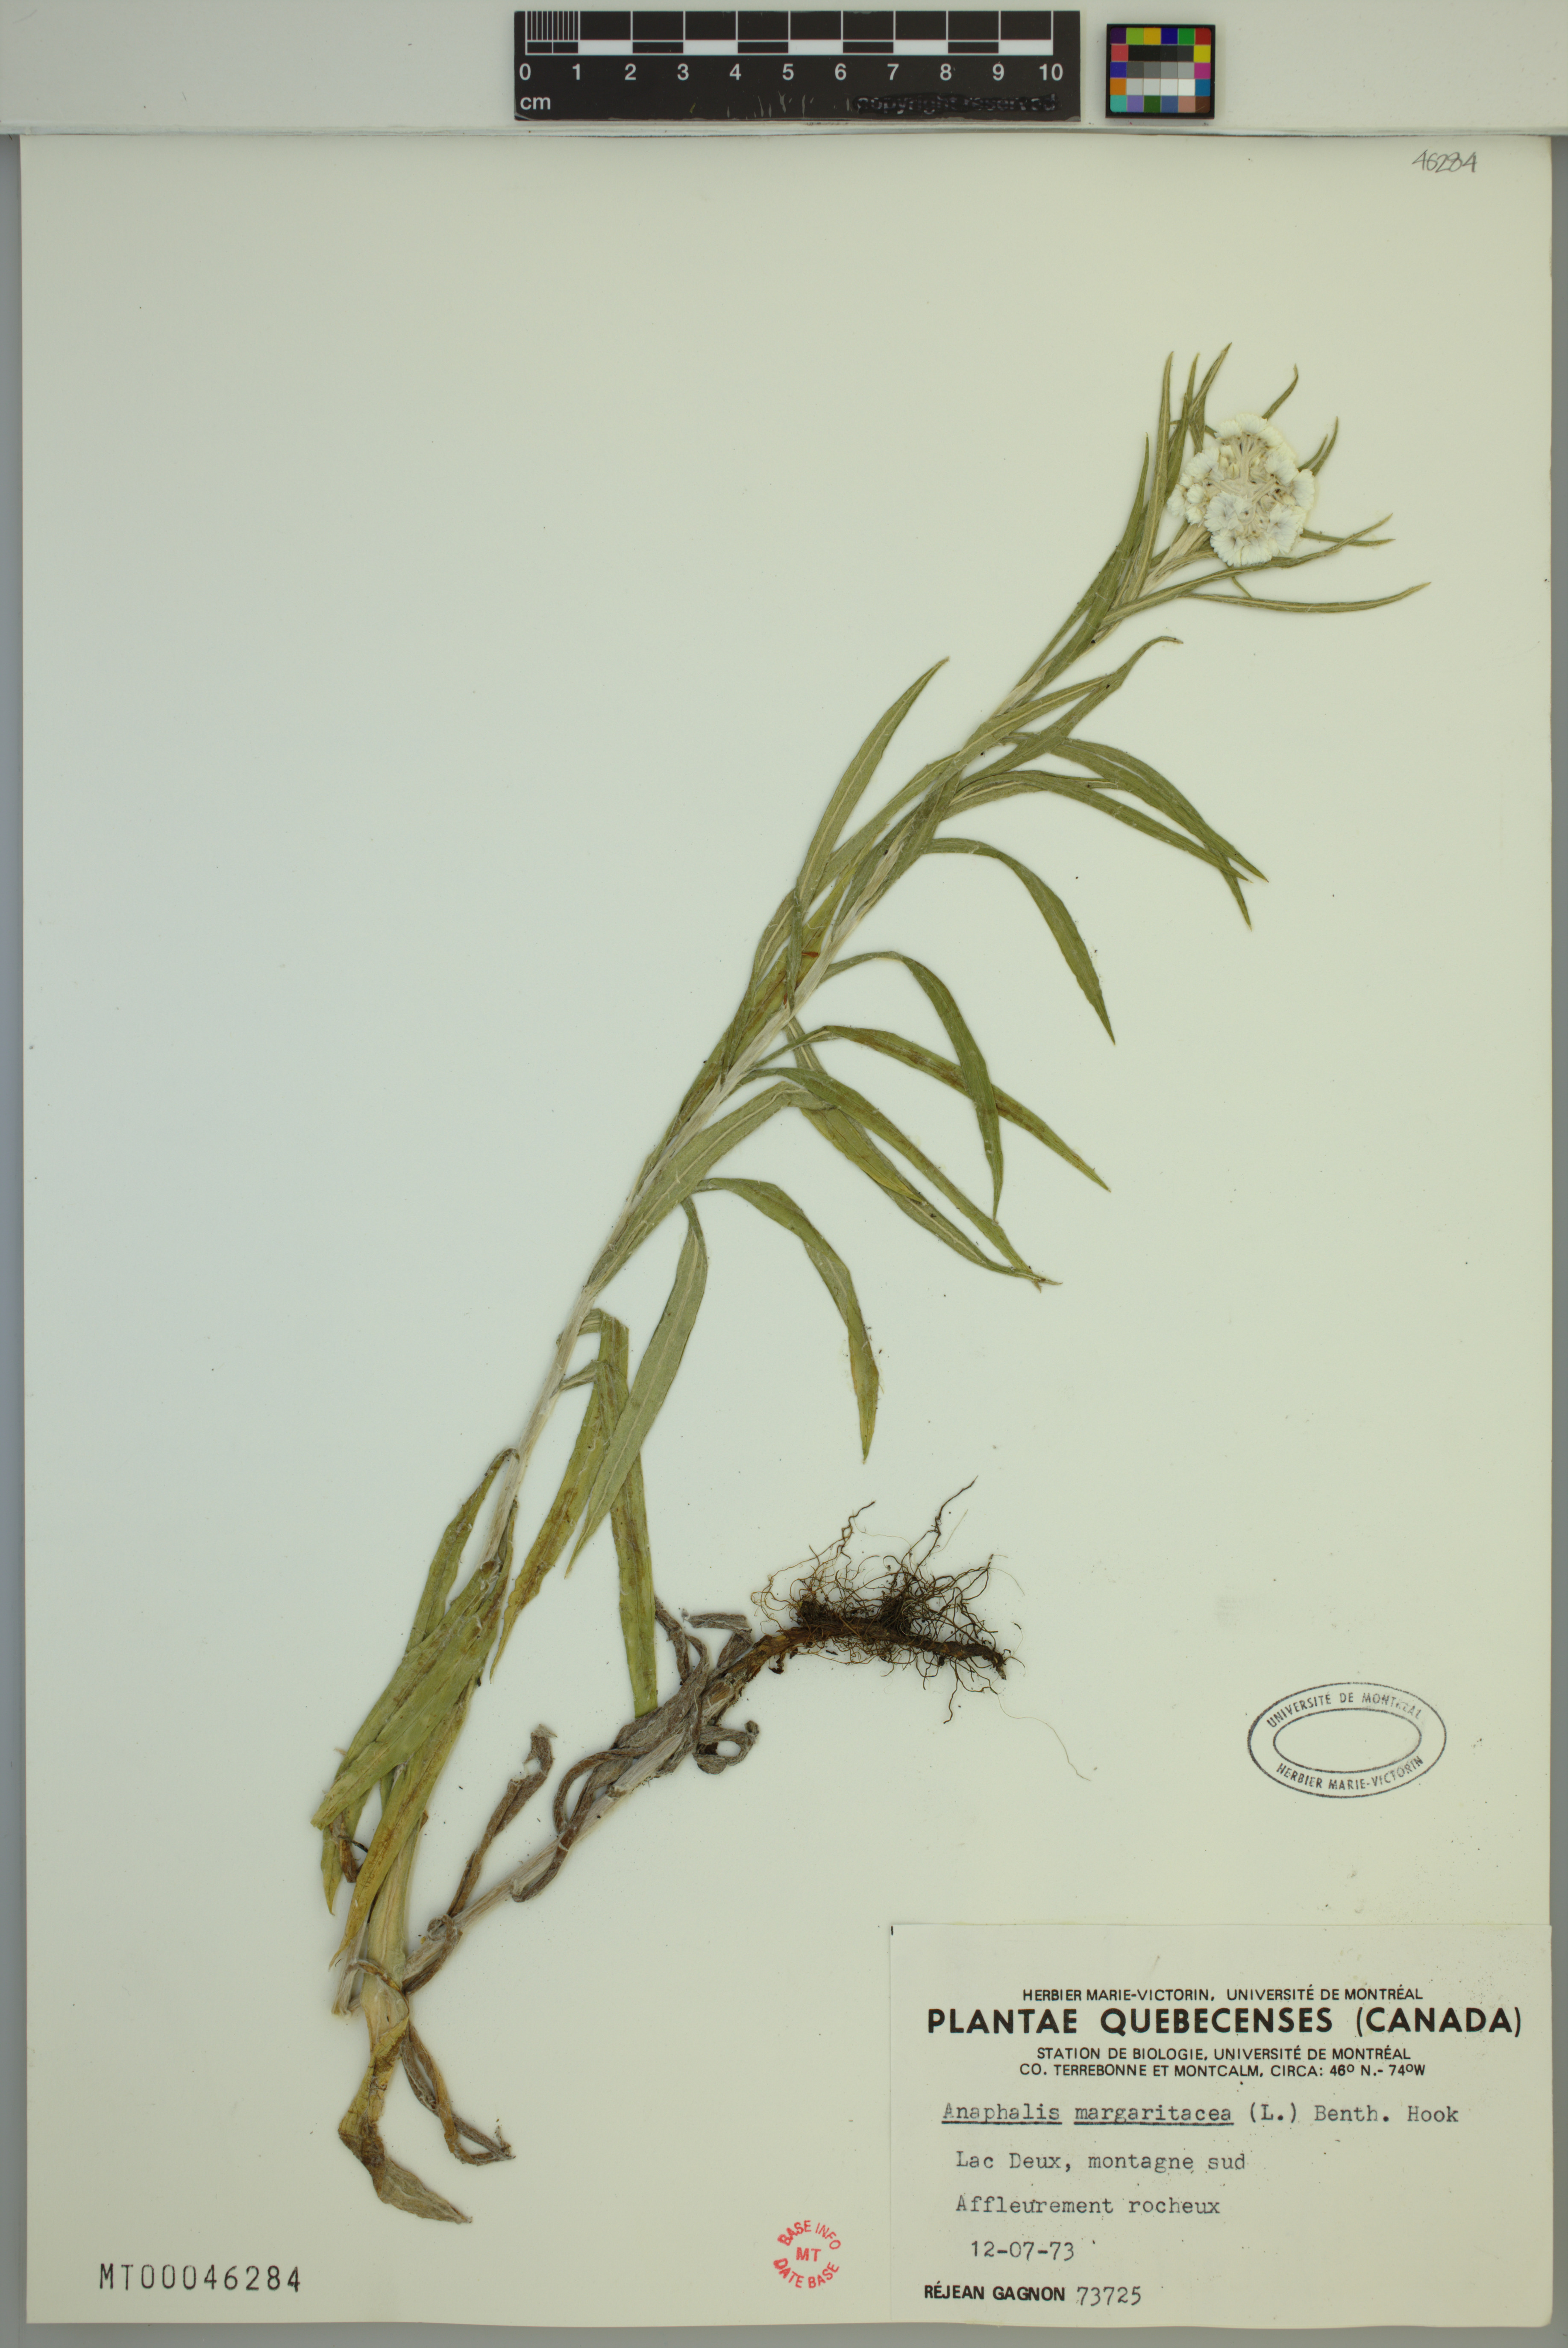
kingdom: Plantae
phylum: Tracheophyta
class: Magnoliopsida
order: Asterales
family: Asteraceae
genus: Anaphalis
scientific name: Anaphalis margaritacea
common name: Pearly everlasting
